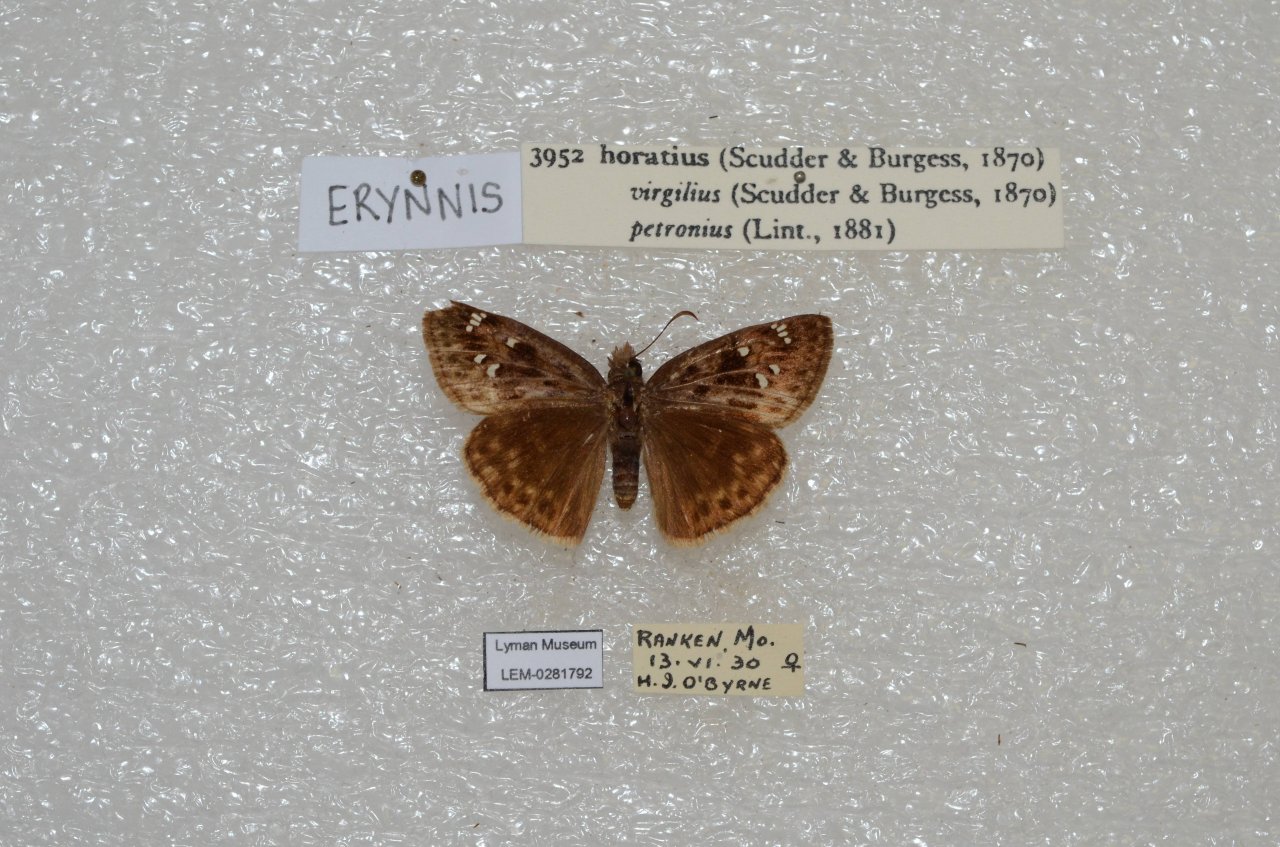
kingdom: Animalia
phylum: Arthropoda
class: Insecta
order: Lepidoptera
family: Hesperiidae
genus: Gesta
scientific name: Gesta
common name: Horace's Duskywing
